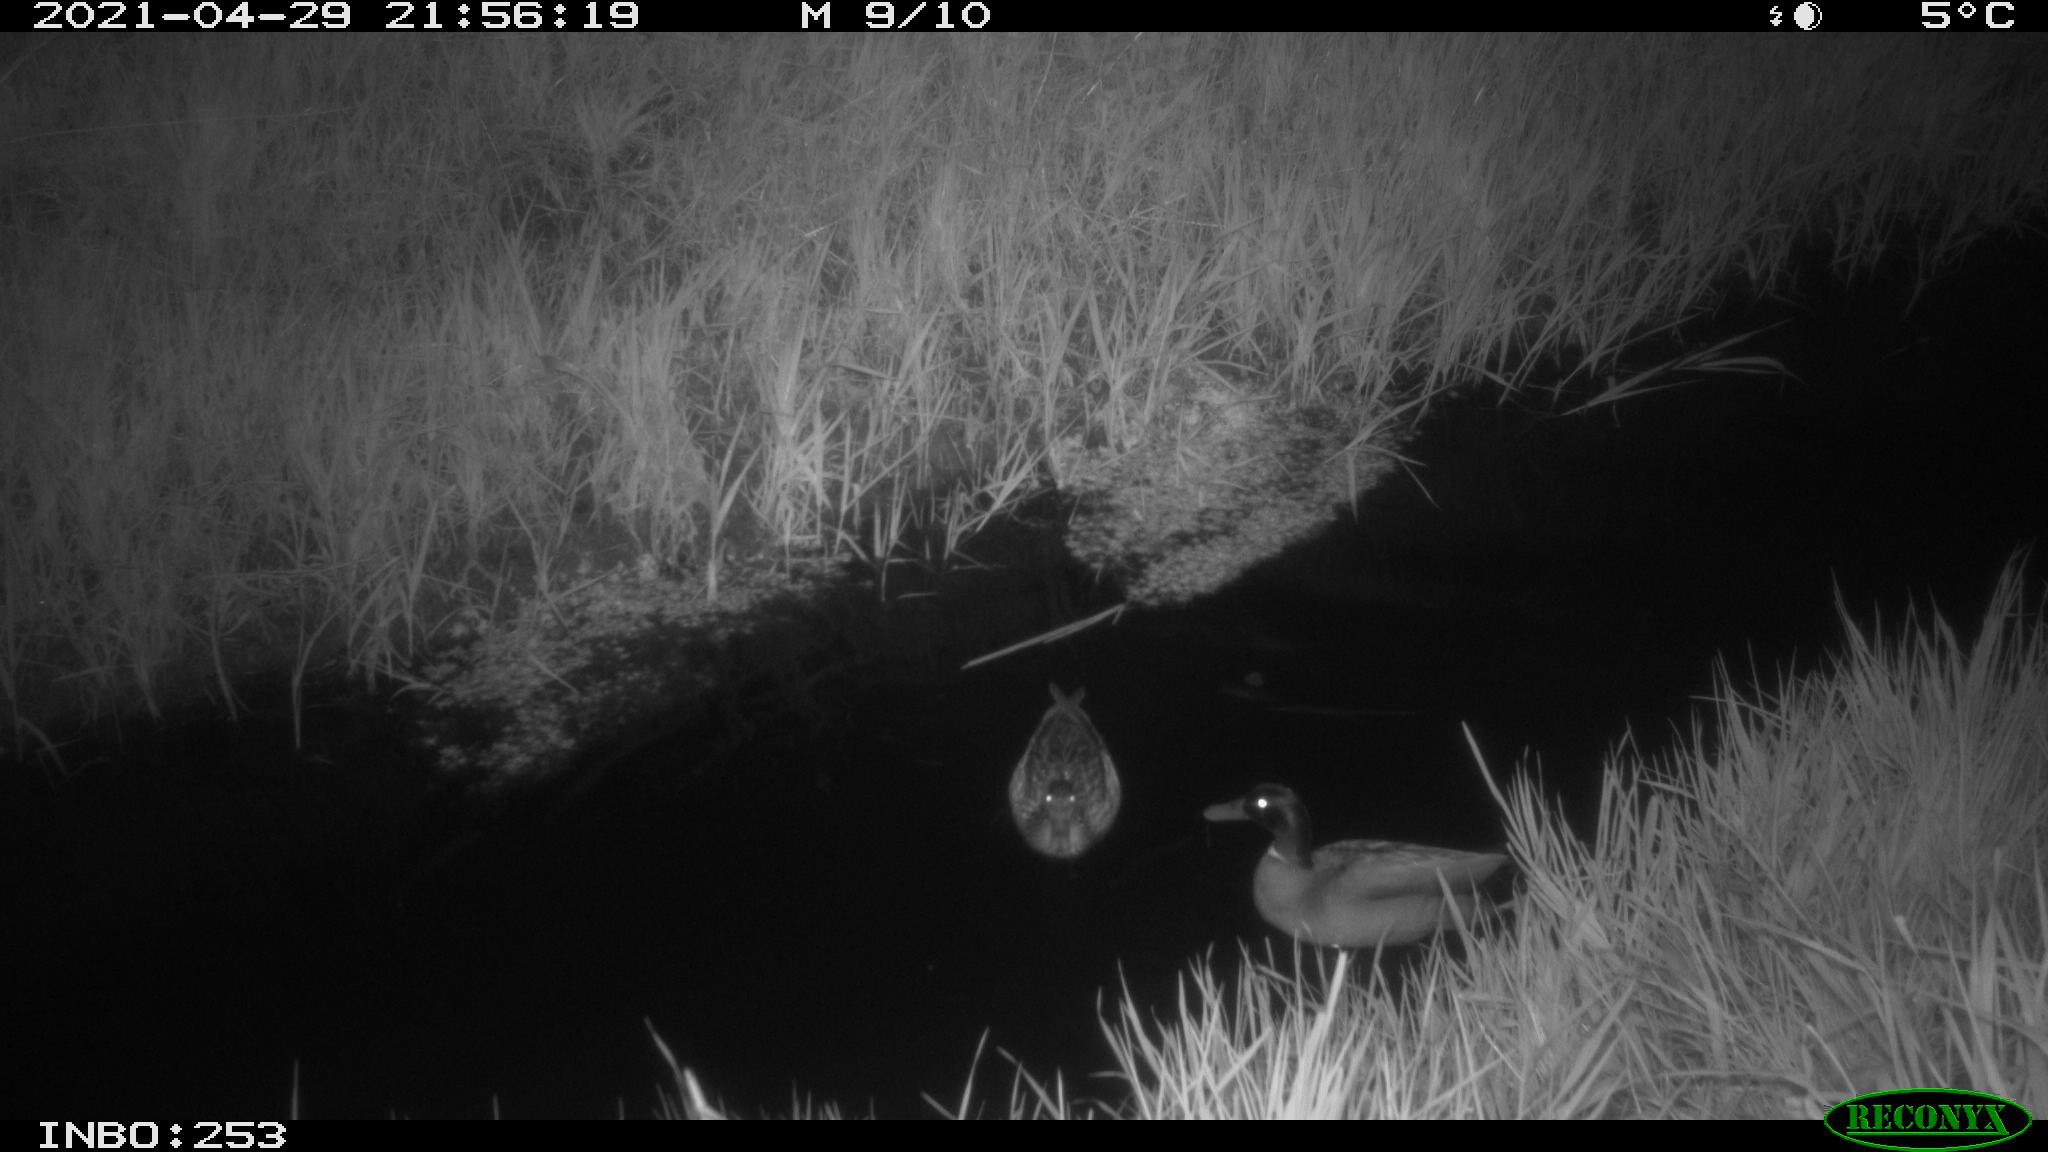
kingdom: Animalia
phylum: Chordata
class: Aves
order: Anseriformes
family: Anatidae
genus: Anas
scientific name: Anas platyrhynchos
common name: Mallard
